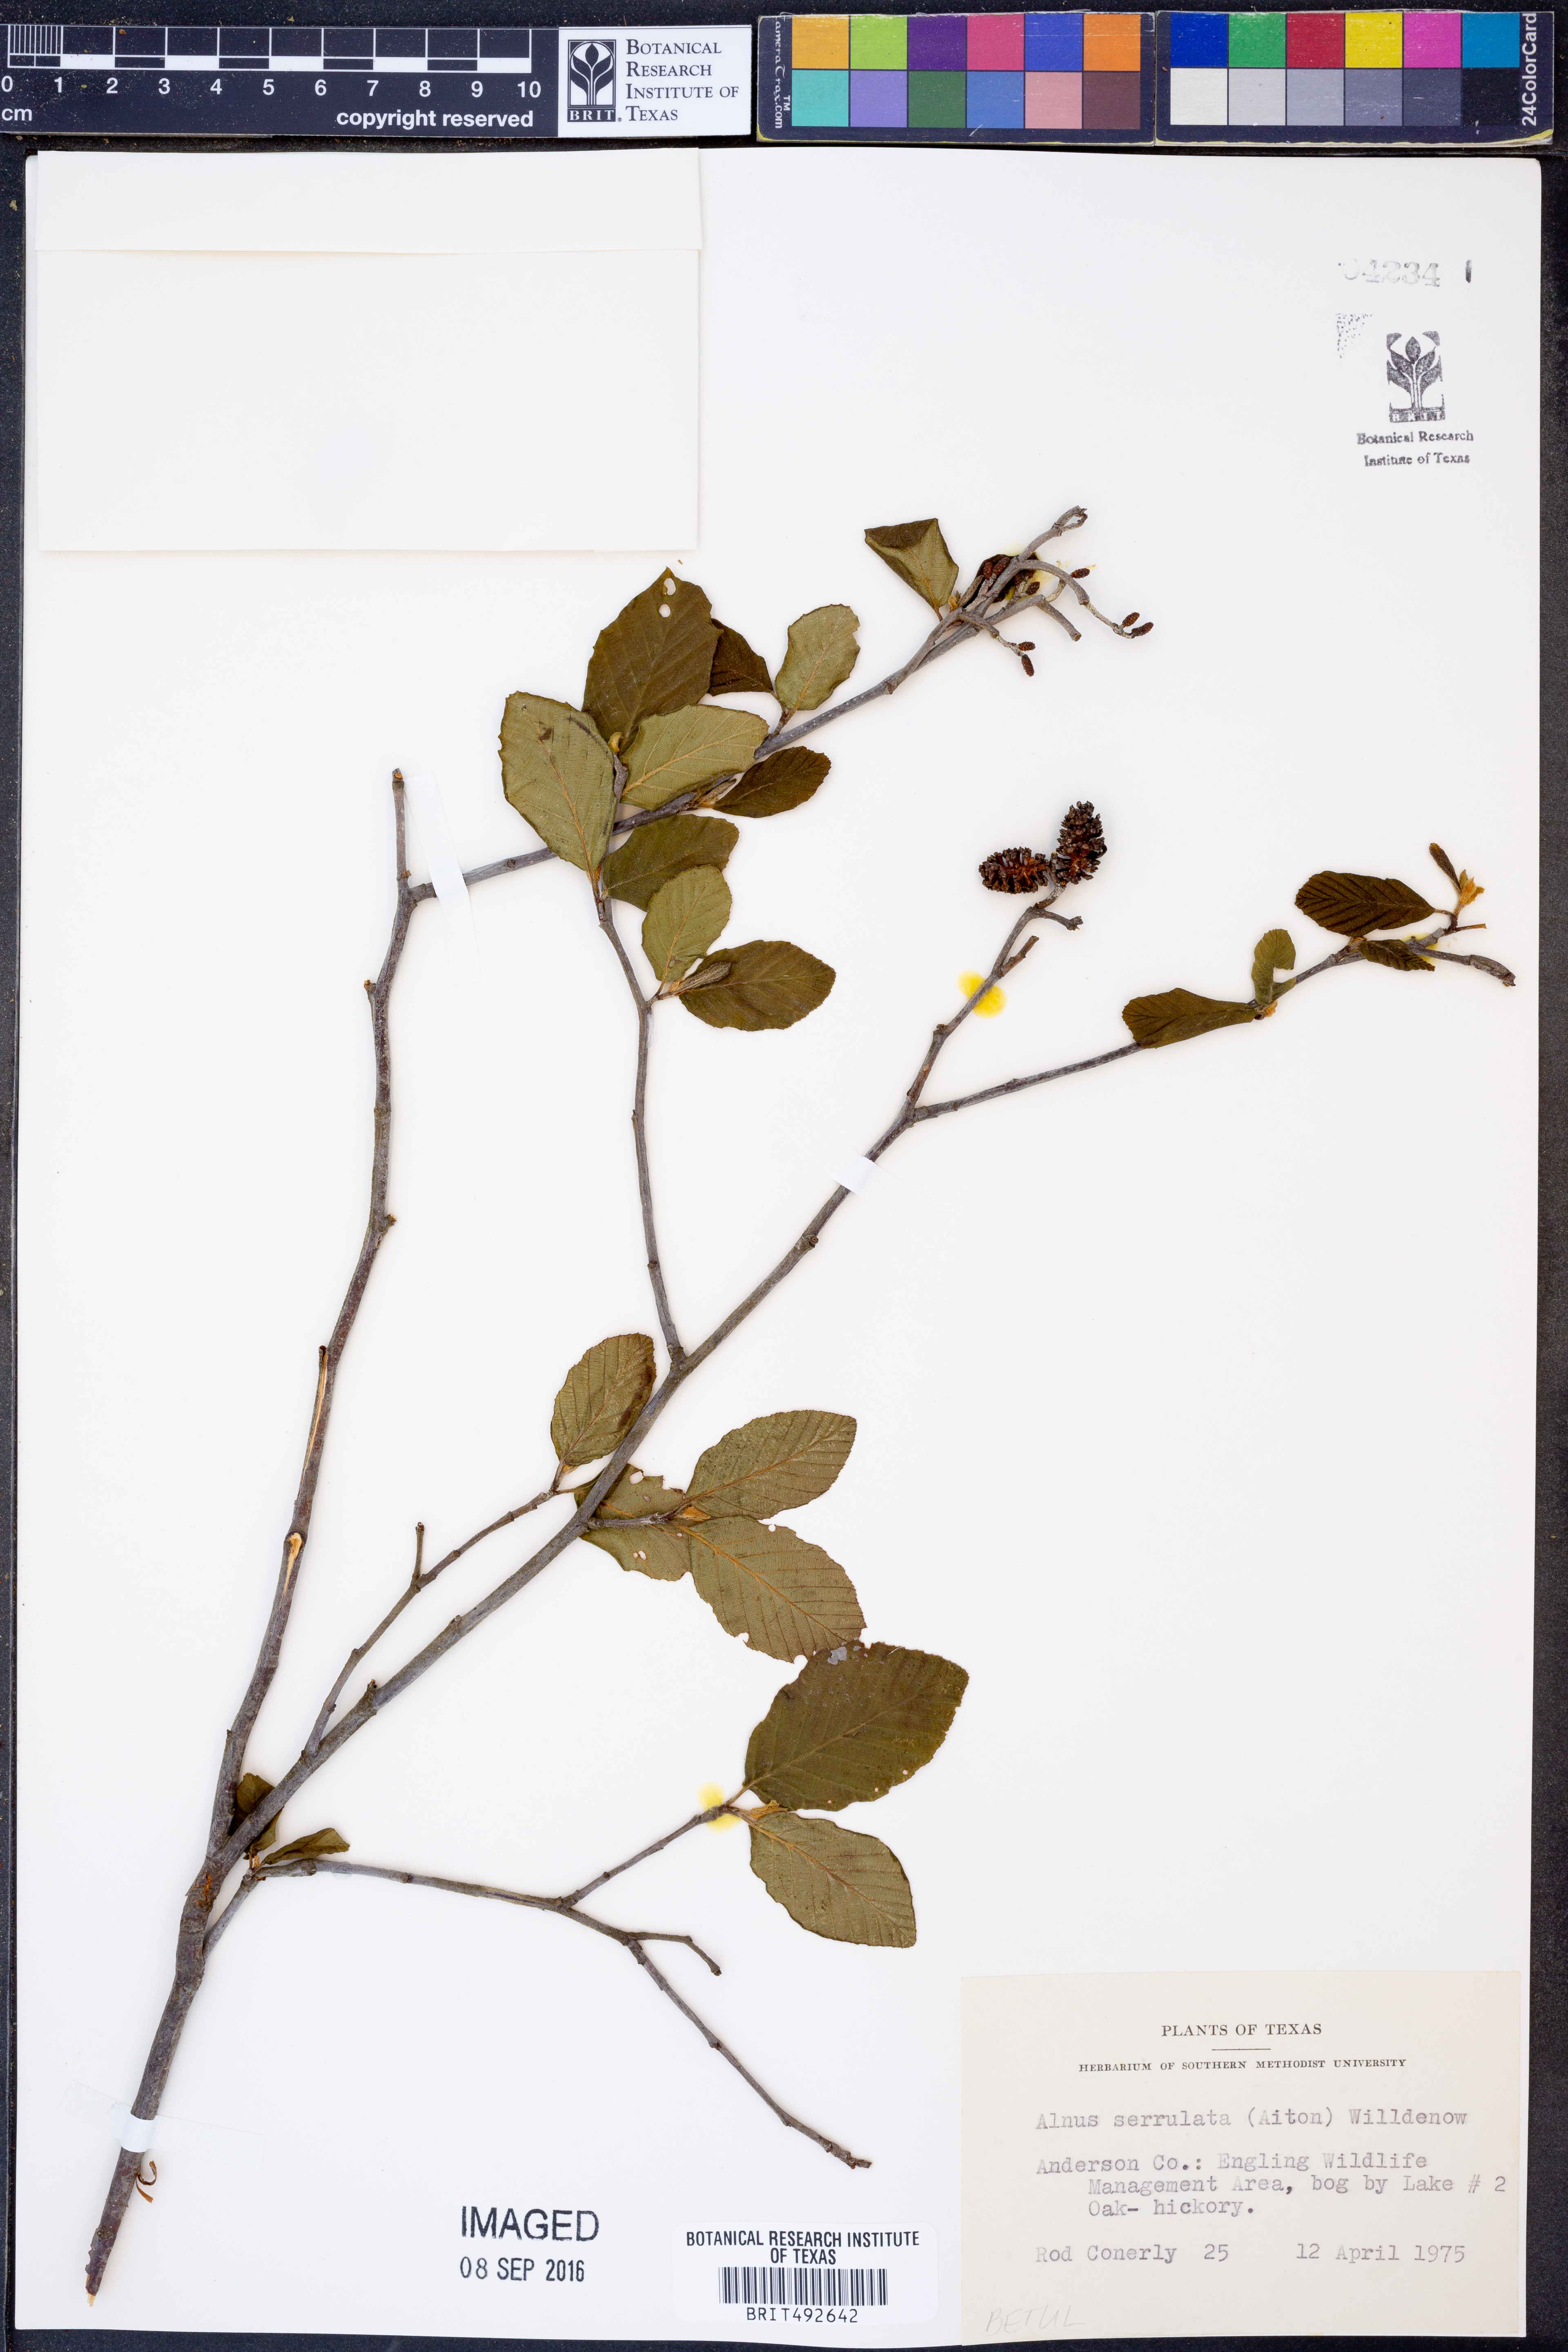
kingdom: Plantae
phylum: Tracheophyta
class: Magnoliopsida
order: Fagales
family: Betulaceae
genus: Alnus
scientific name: Alnus serrulata
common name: Hazel alder
